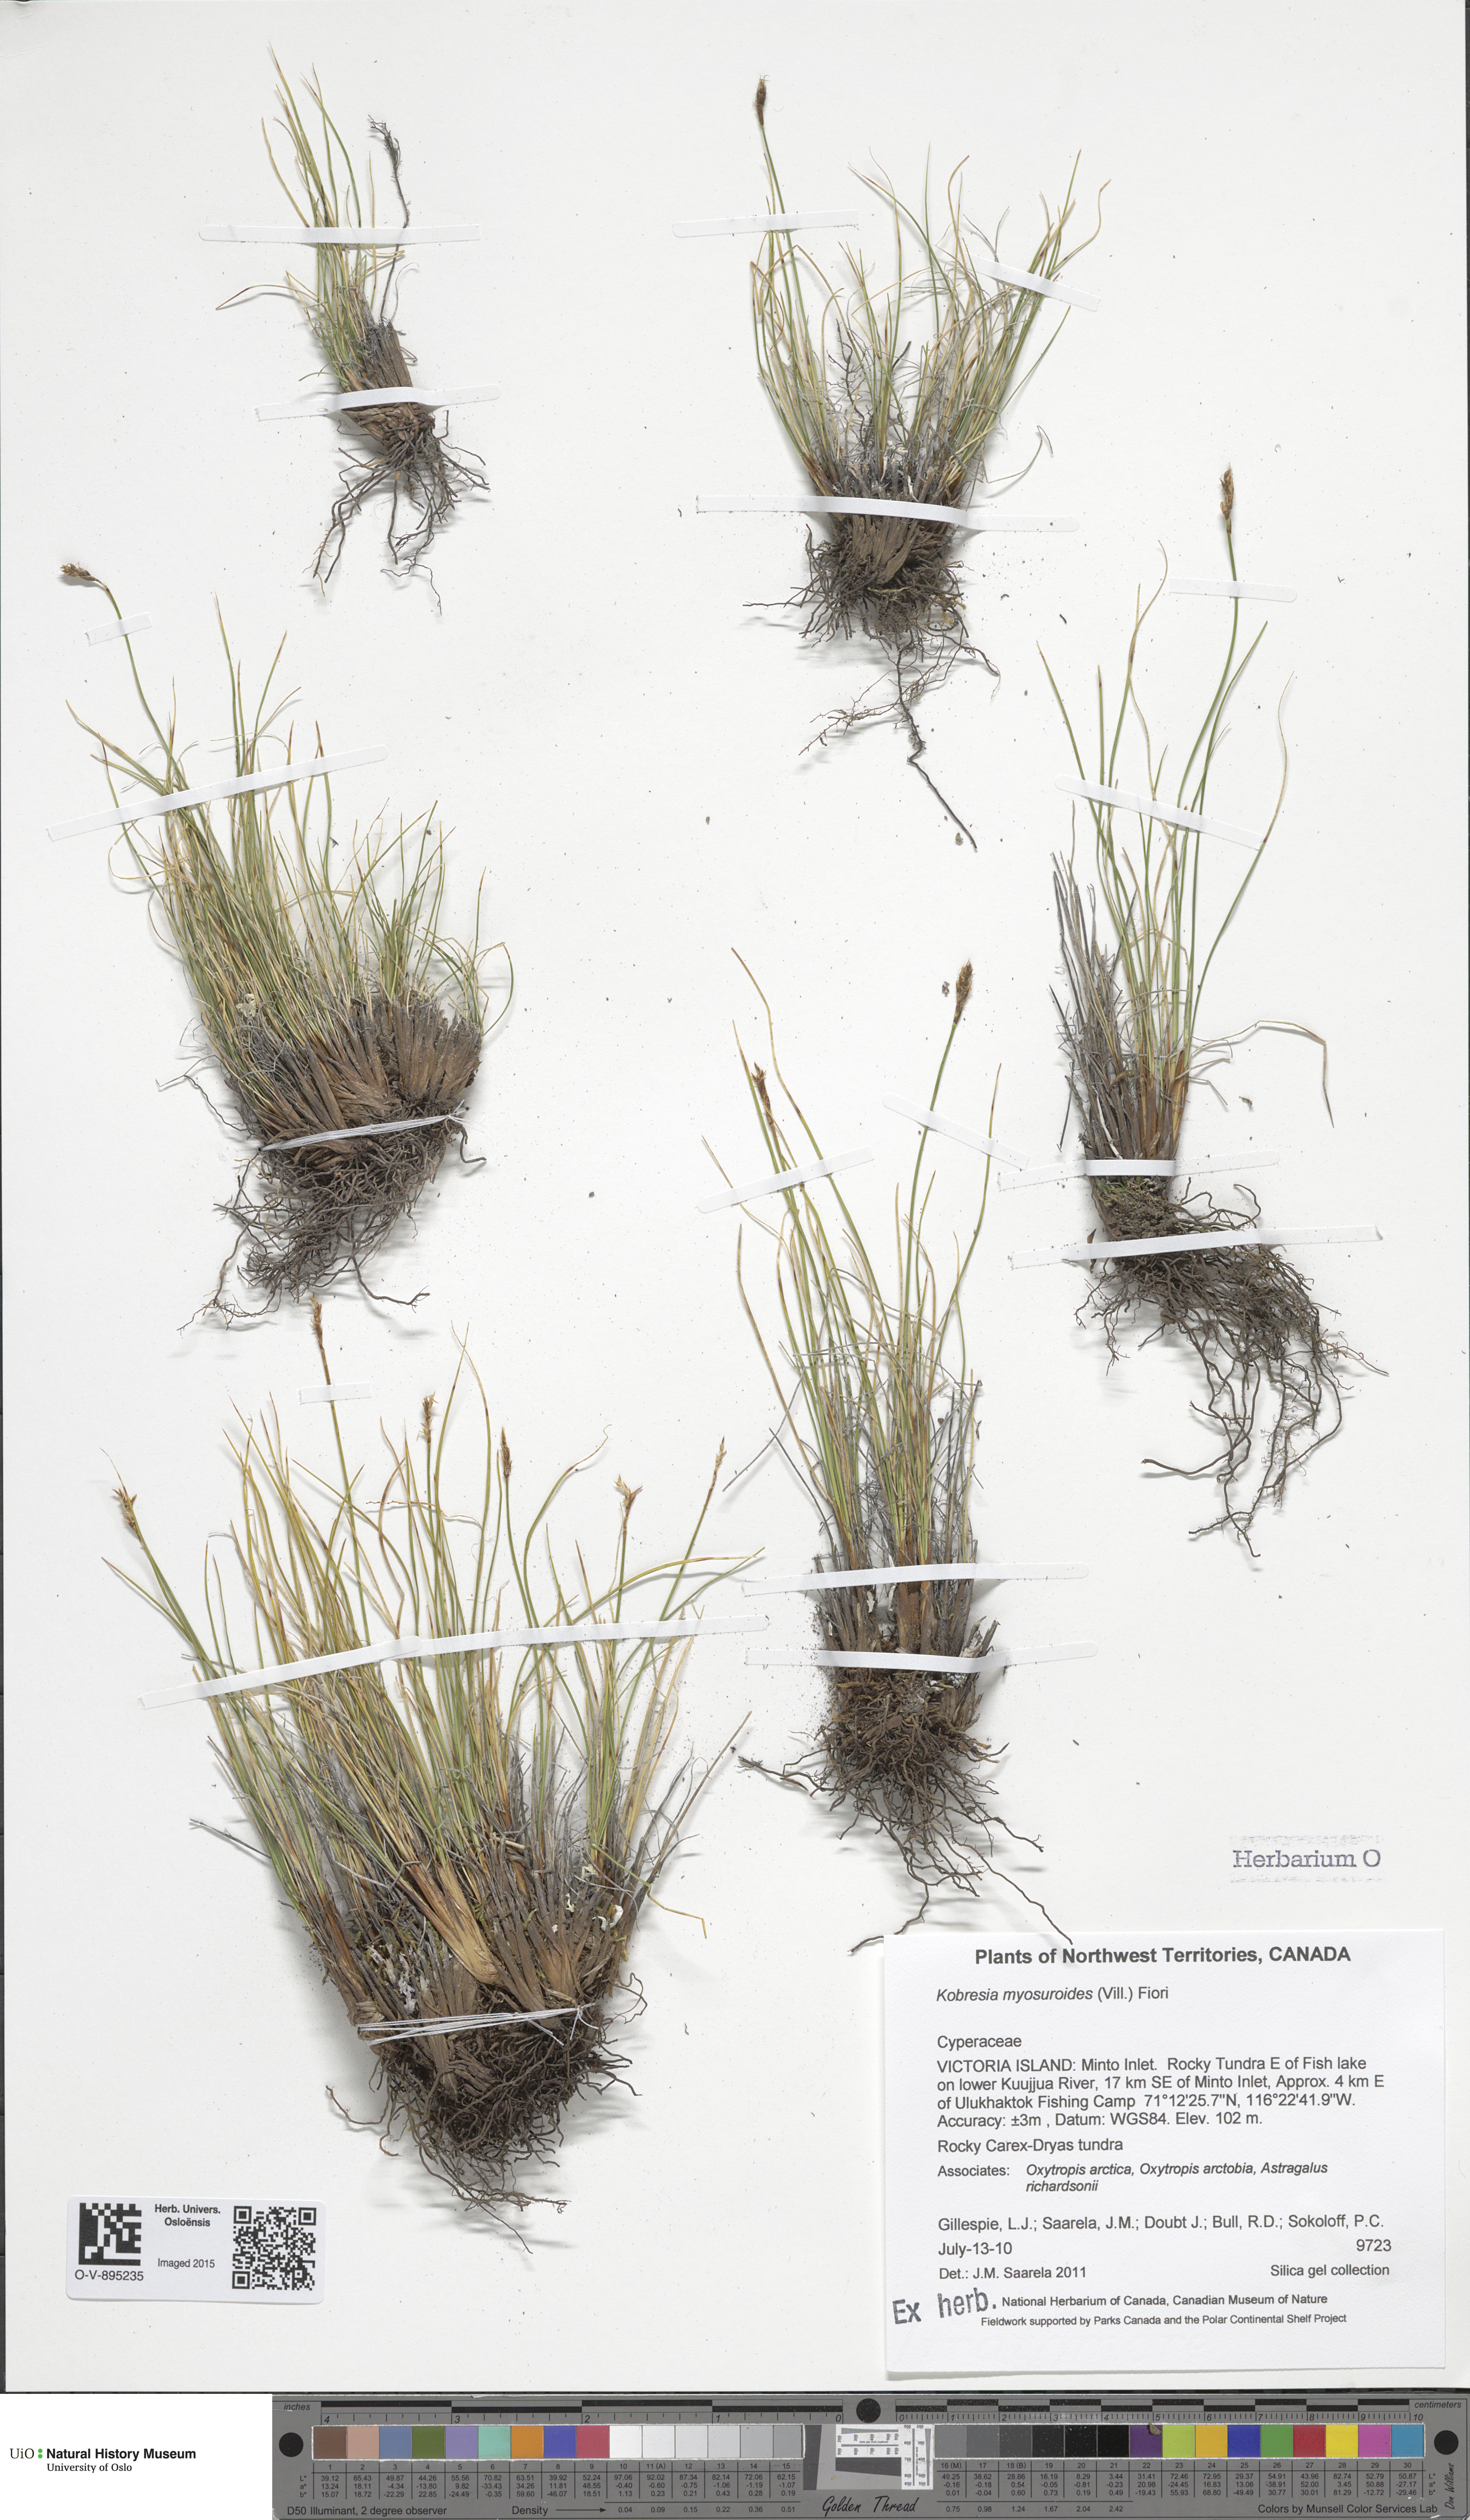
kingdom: Plantae
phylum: Tracheophyta
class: Liliopsida
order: Poales
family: Cyperaceae
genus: Carex
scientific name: Carex myosuroides
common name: Bellard's bog sedge
